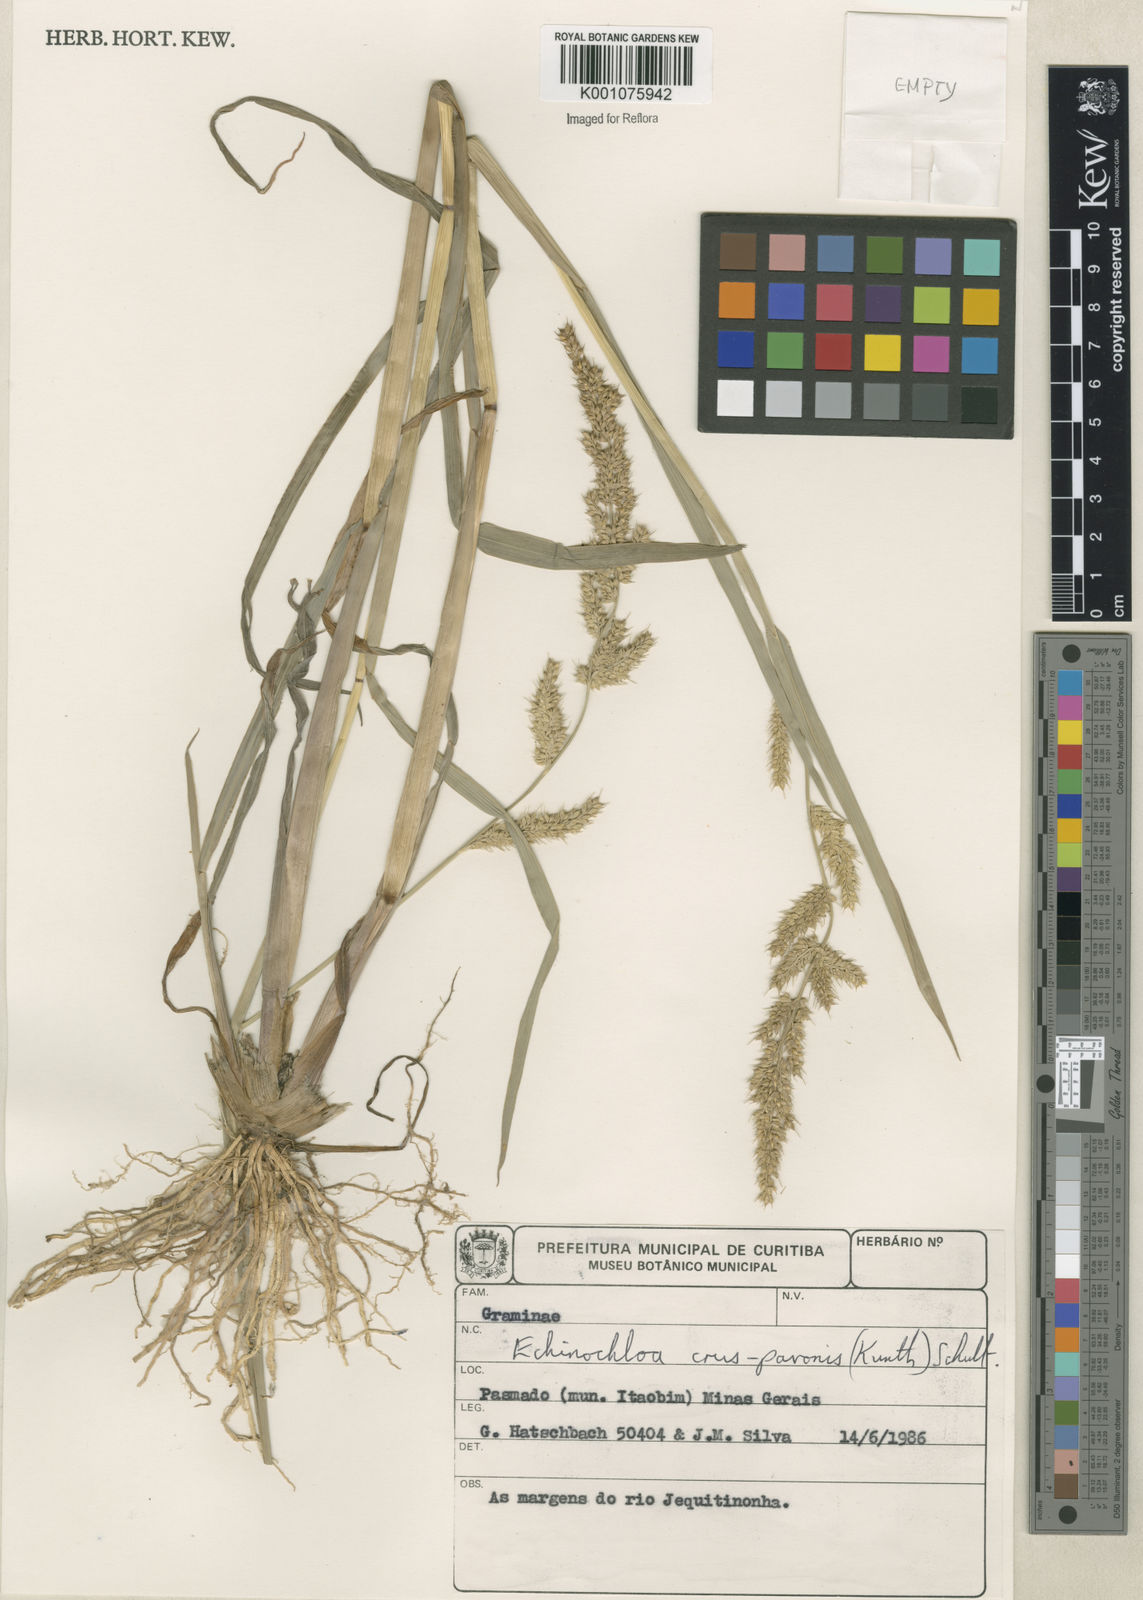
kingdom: Plantae
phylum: Tracheophyta
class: Liliopsida
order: Poales
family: Poaceae
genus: Echinochloa
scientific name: Echinochloa crus-pavonis
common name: Gulf cockspur grass
